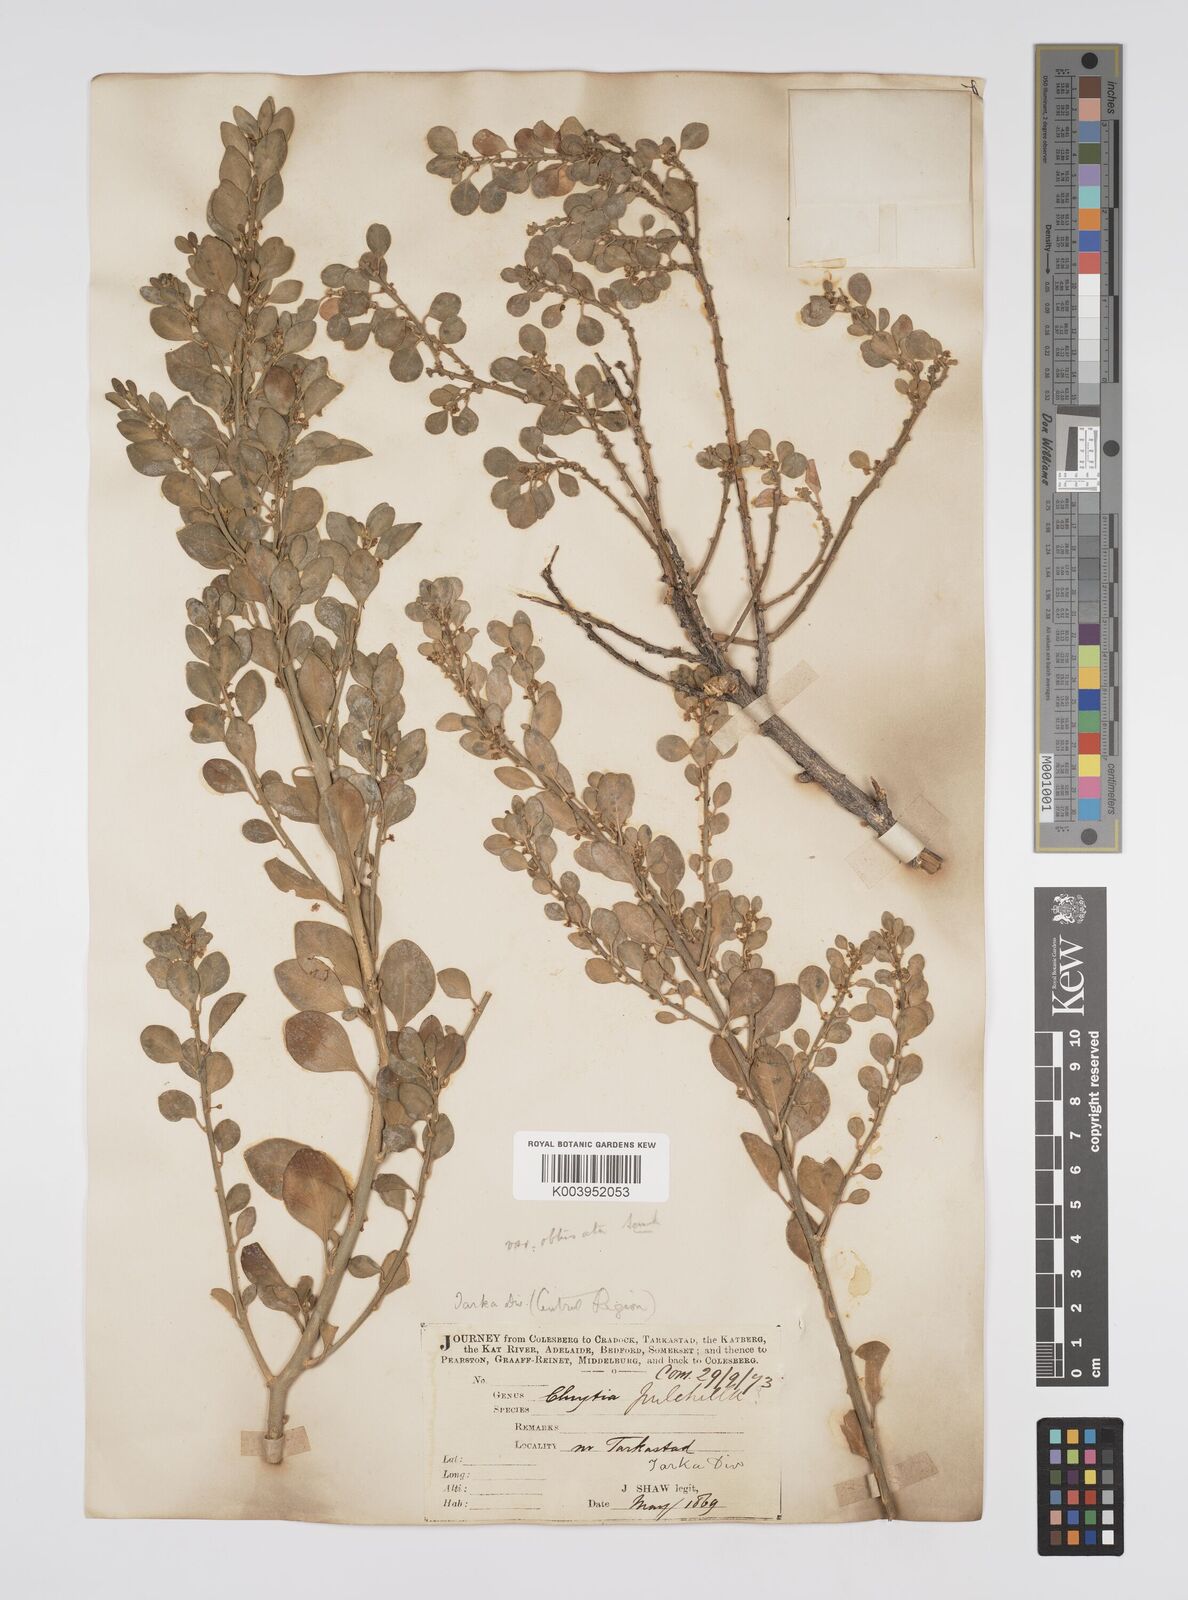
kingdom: Plantae
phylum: Tracheophyta
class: Magnoliopsida
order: Malpighiales
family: Peraceae
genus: Clutia
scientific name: Clutia pulchella
